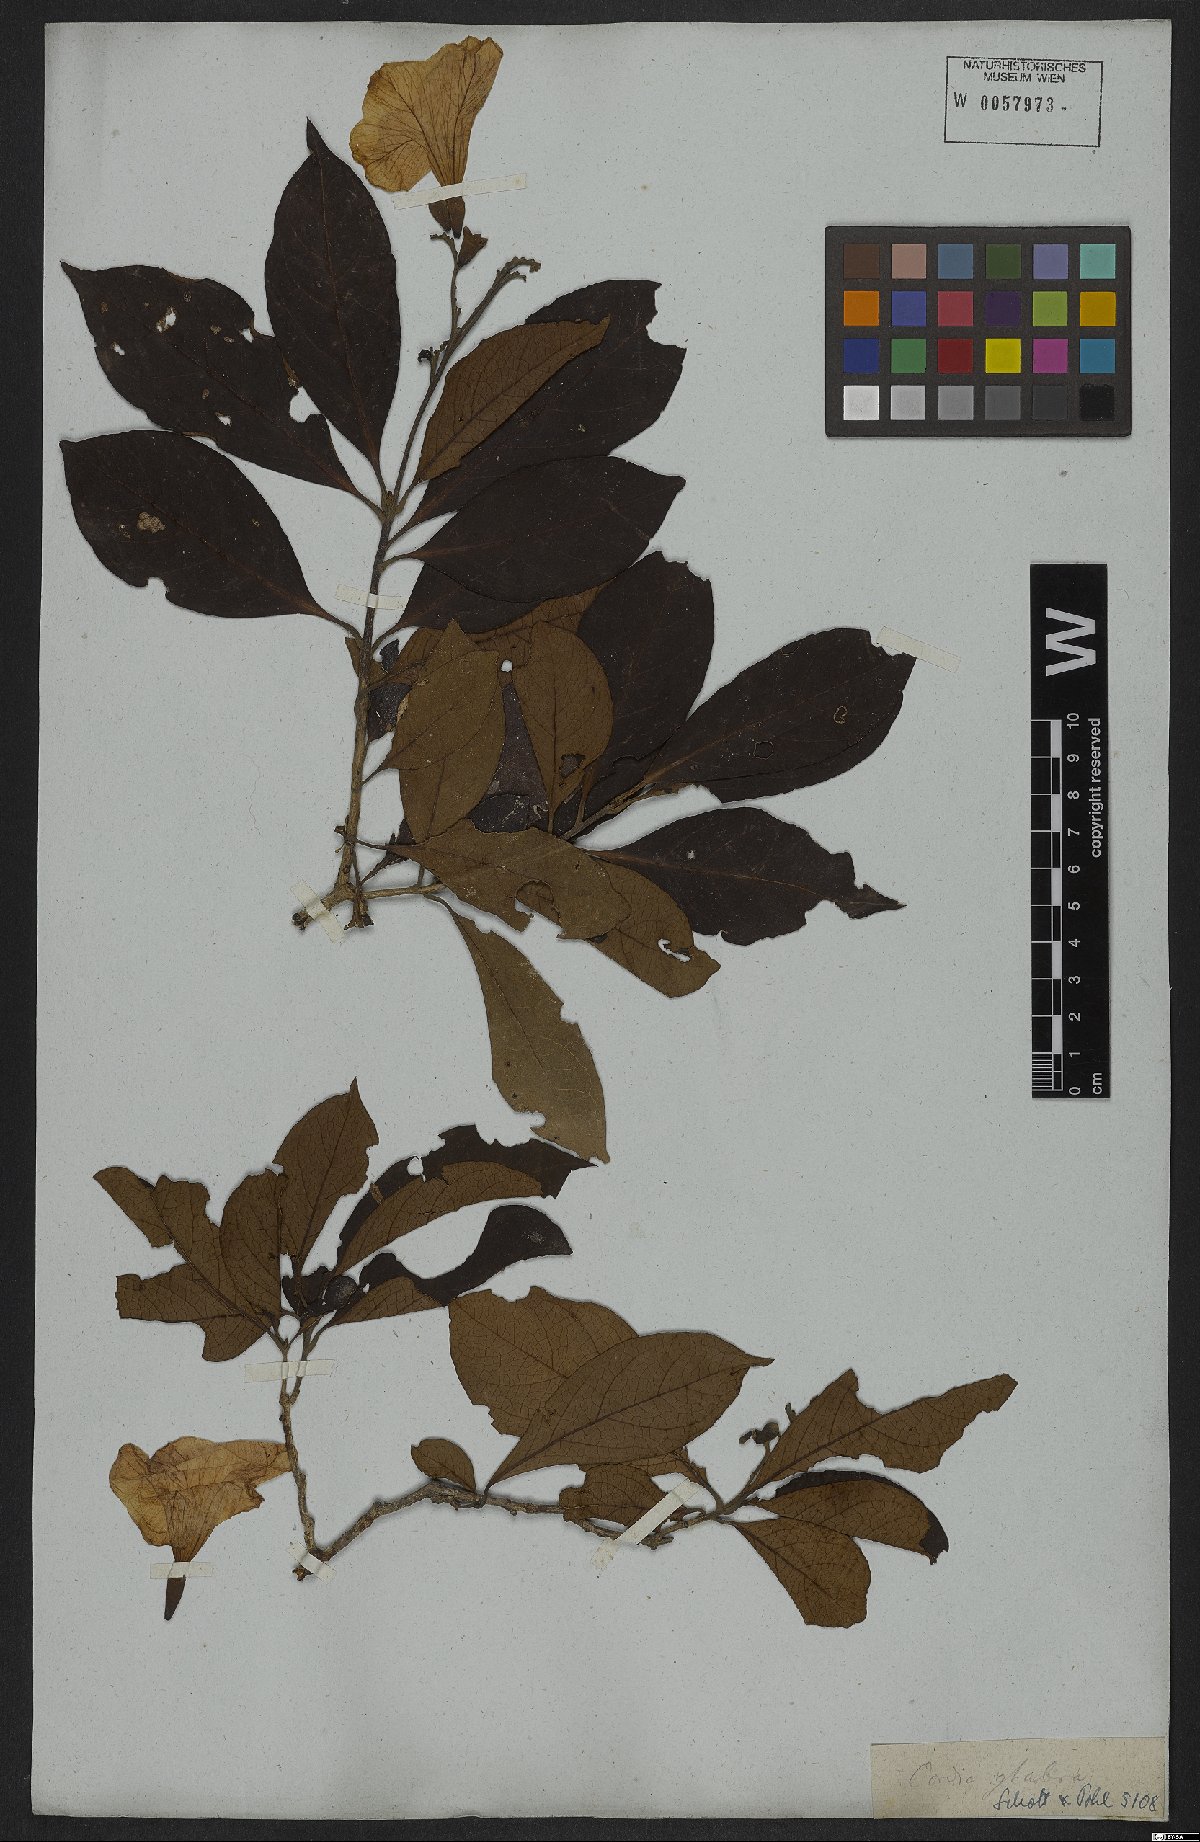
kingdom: Plantae
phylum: Tracheophyta
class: Magnoliopsida
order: Boraginales
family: Cordiaceae
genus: Cordia
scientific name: Cordia glabra
